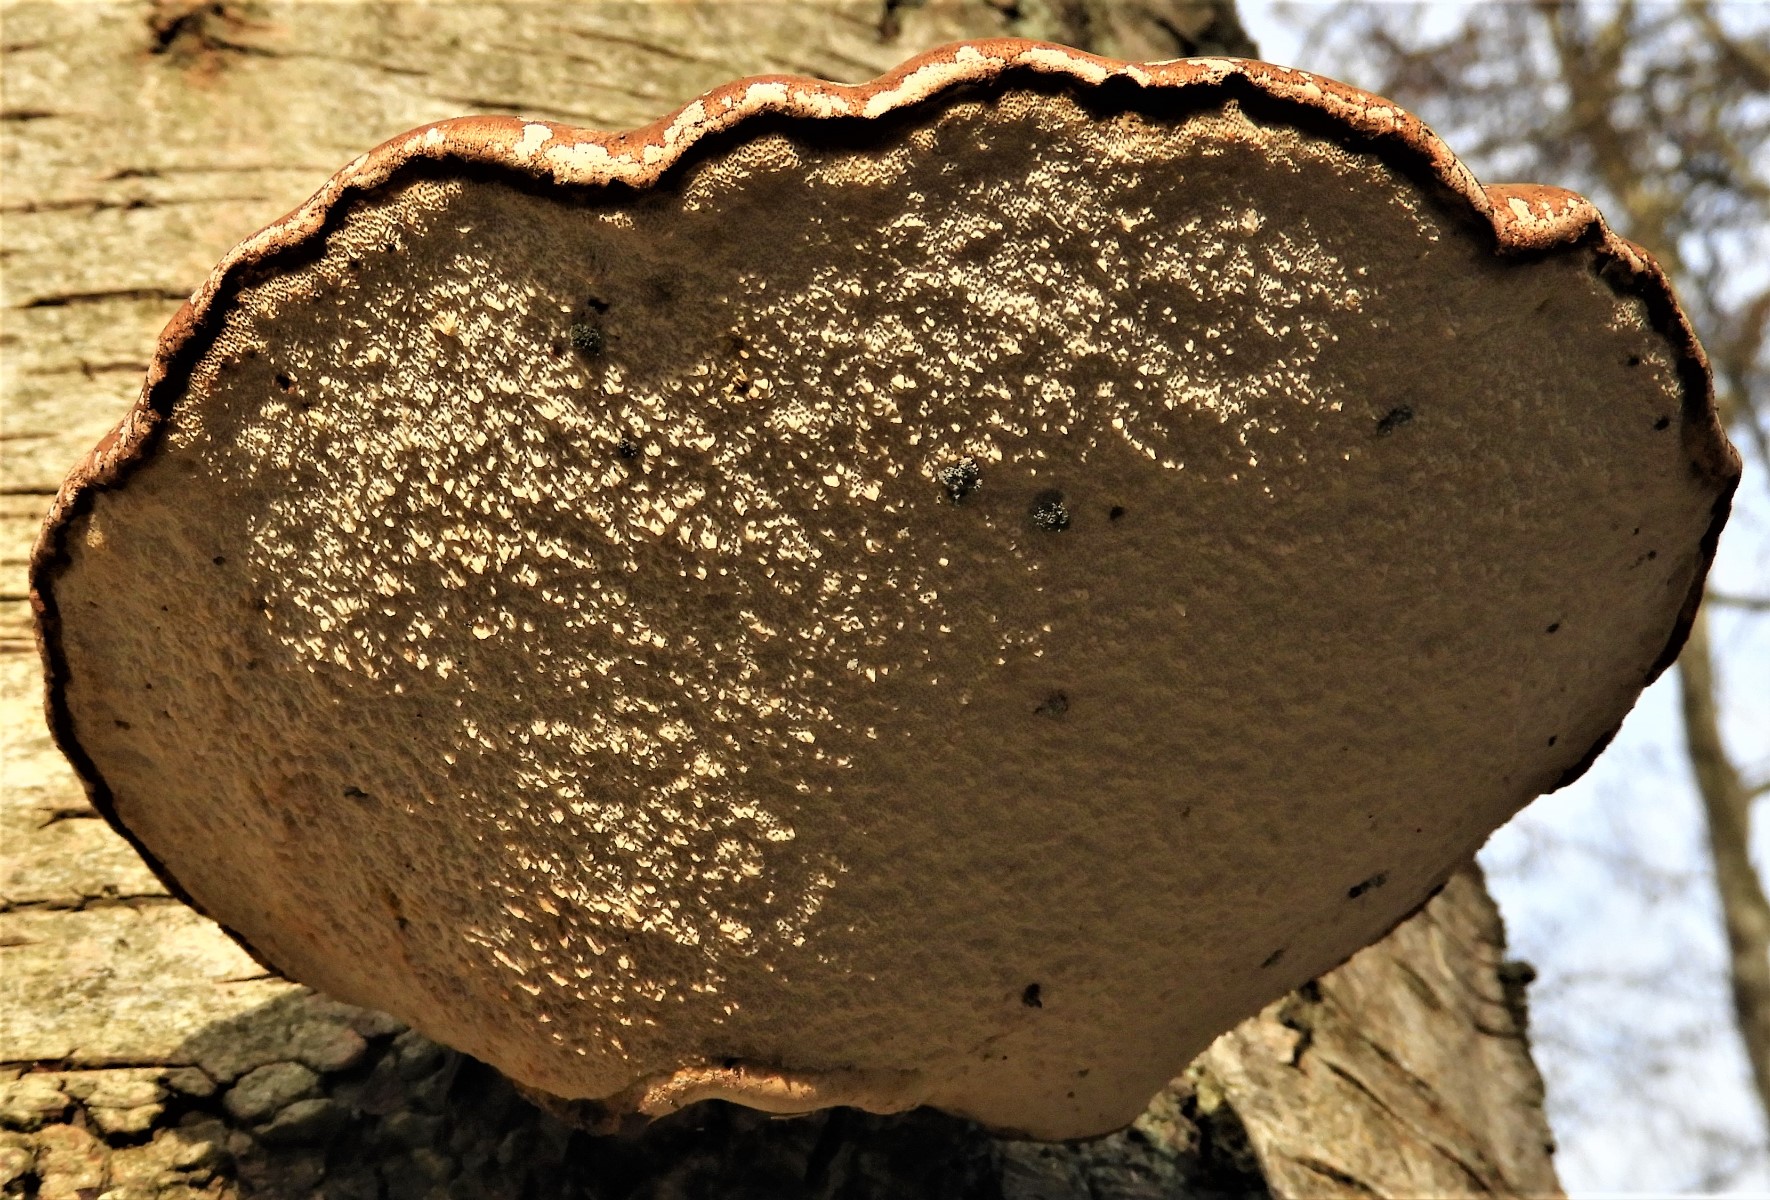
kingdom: Fungi
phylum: Basidiomycota
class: Agaricomycetes
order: Polyporales
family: Fomitopsidaceae
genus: Fomitopsis
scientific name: Fomitopsis betulina
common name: birkeporesvamp
